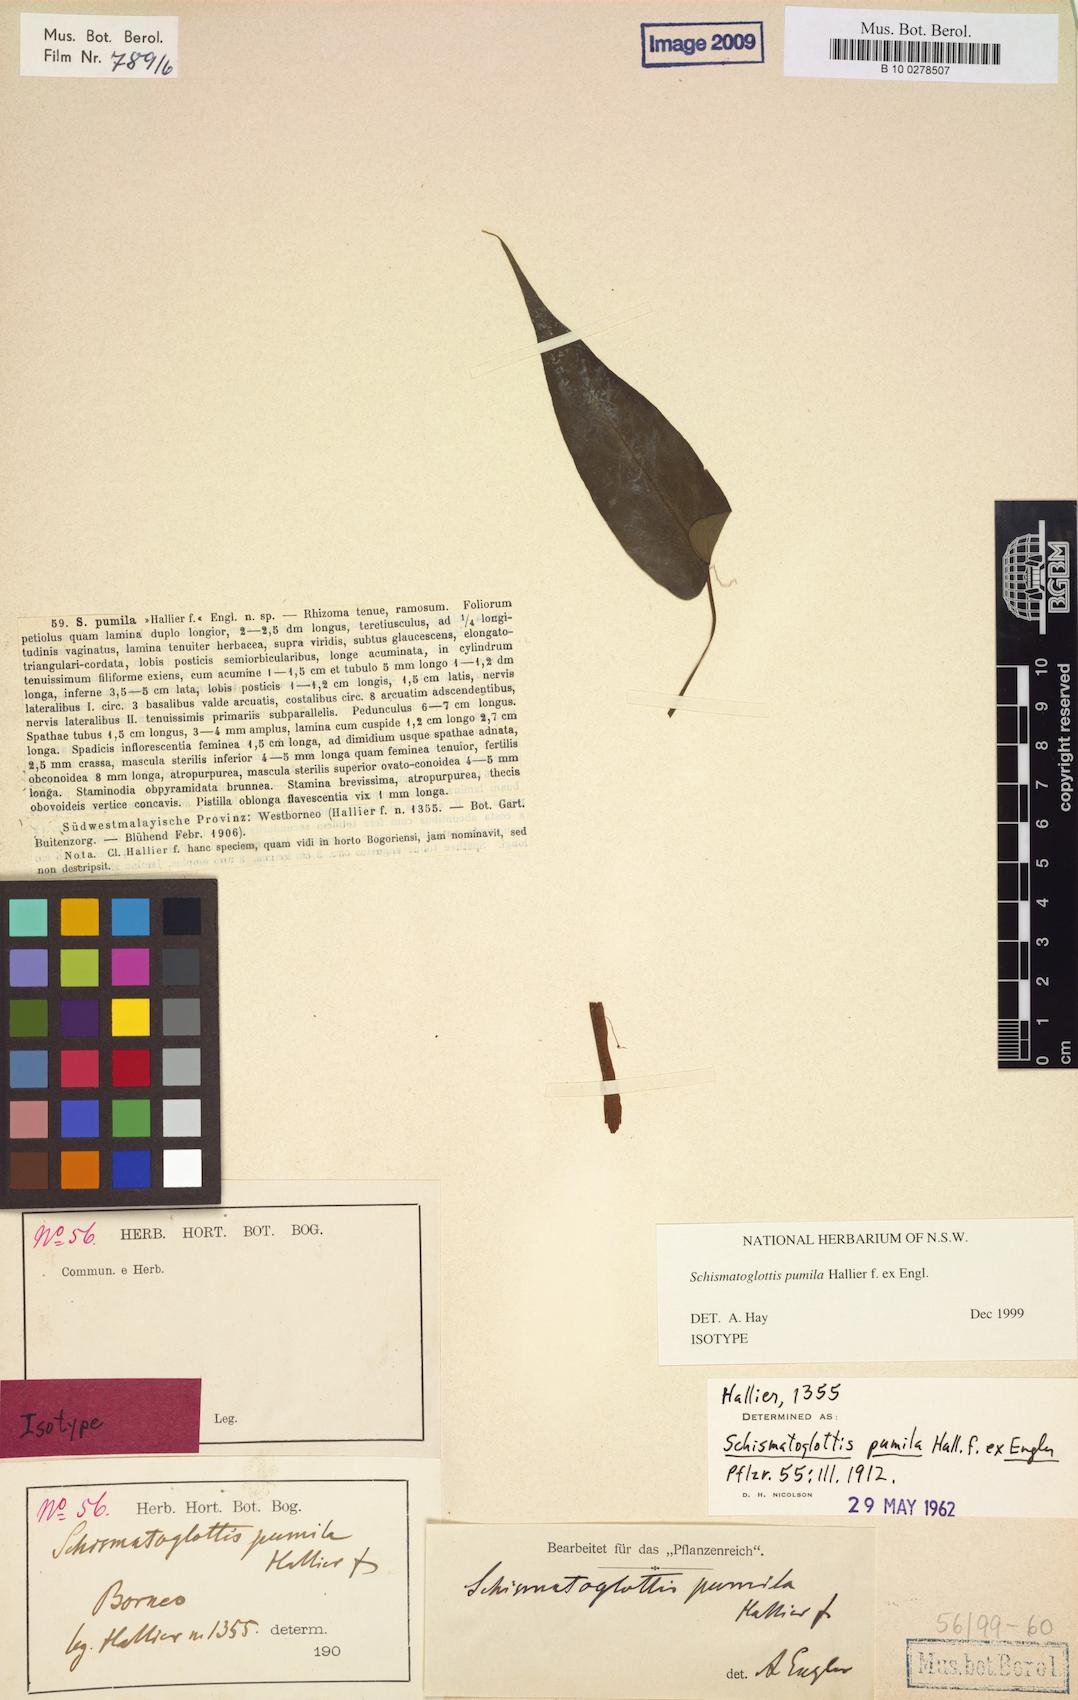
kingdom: Plantae
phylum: Tracheophyta
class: Liliopsida
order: Alismatales
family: Araceae
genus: Schismatoglottis
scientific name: Schismatoglottis pumila ex
